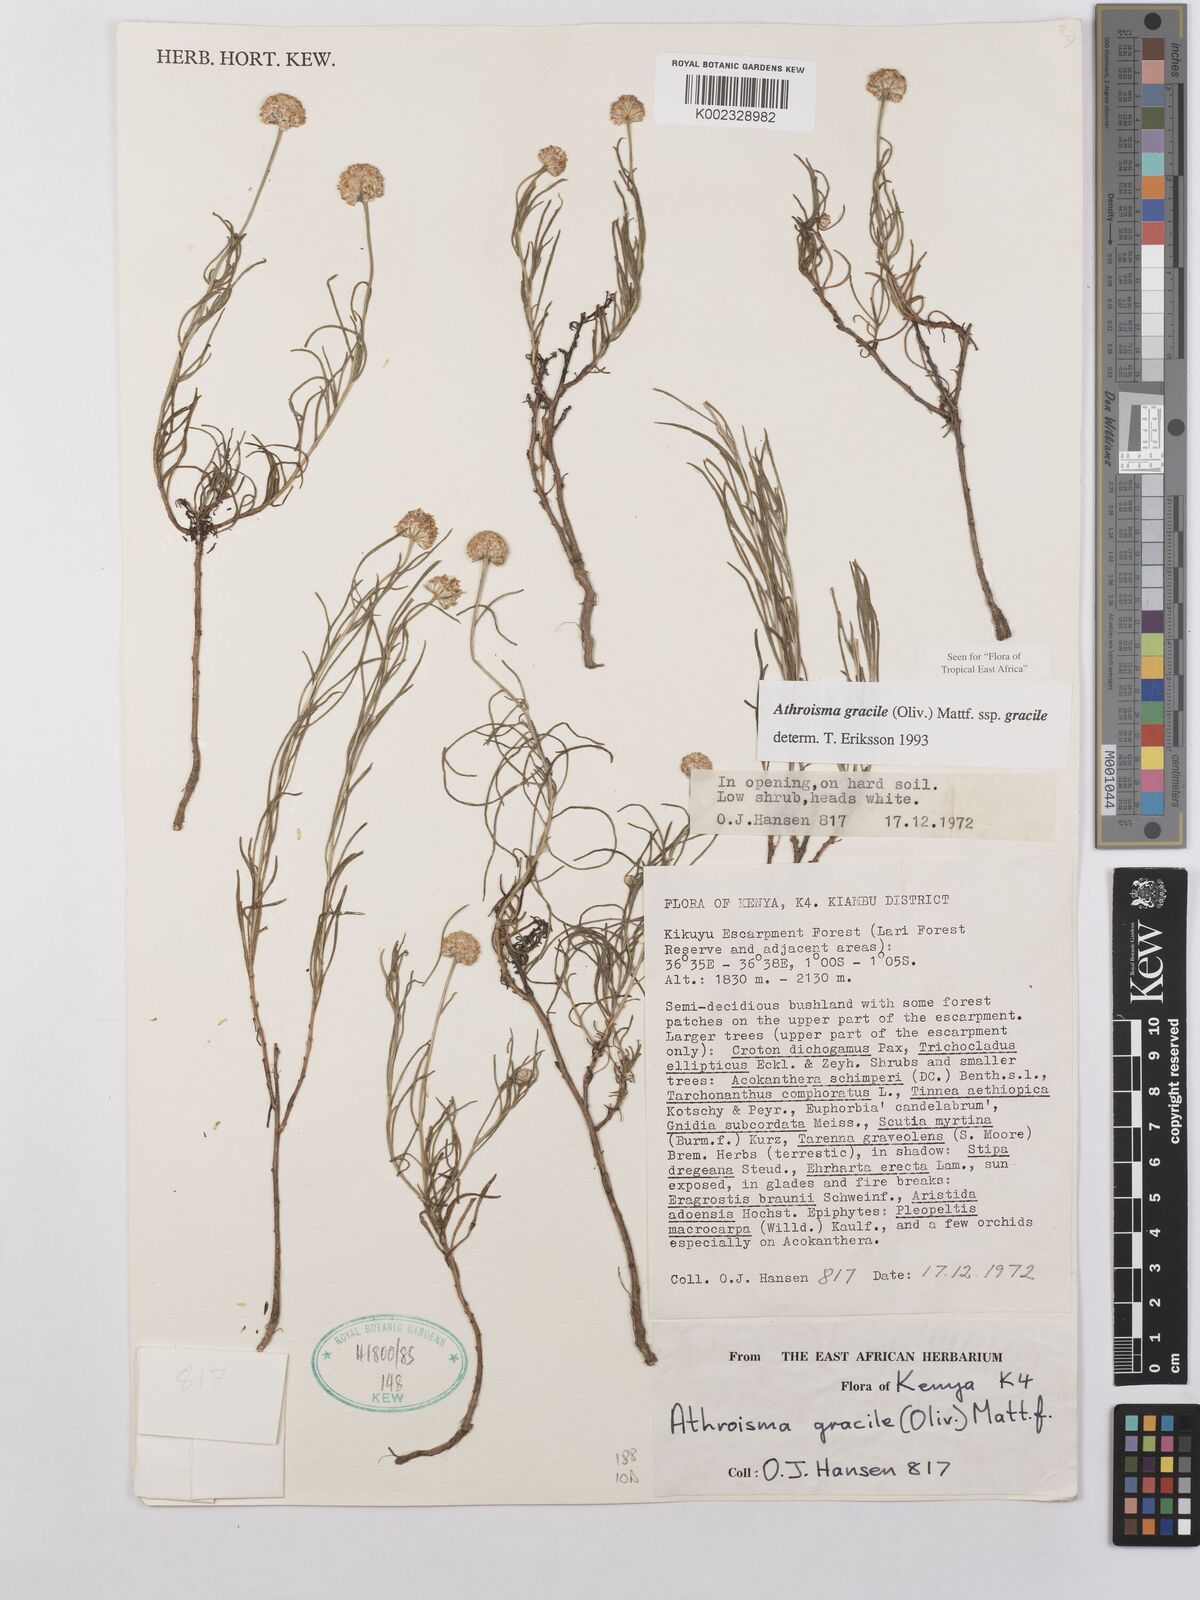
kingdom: Plantae
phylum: Tracheophyta
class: Magnoliopsida
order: Asterales
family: Asteraceae
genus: Athroisma
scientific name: Athroisma gracile
